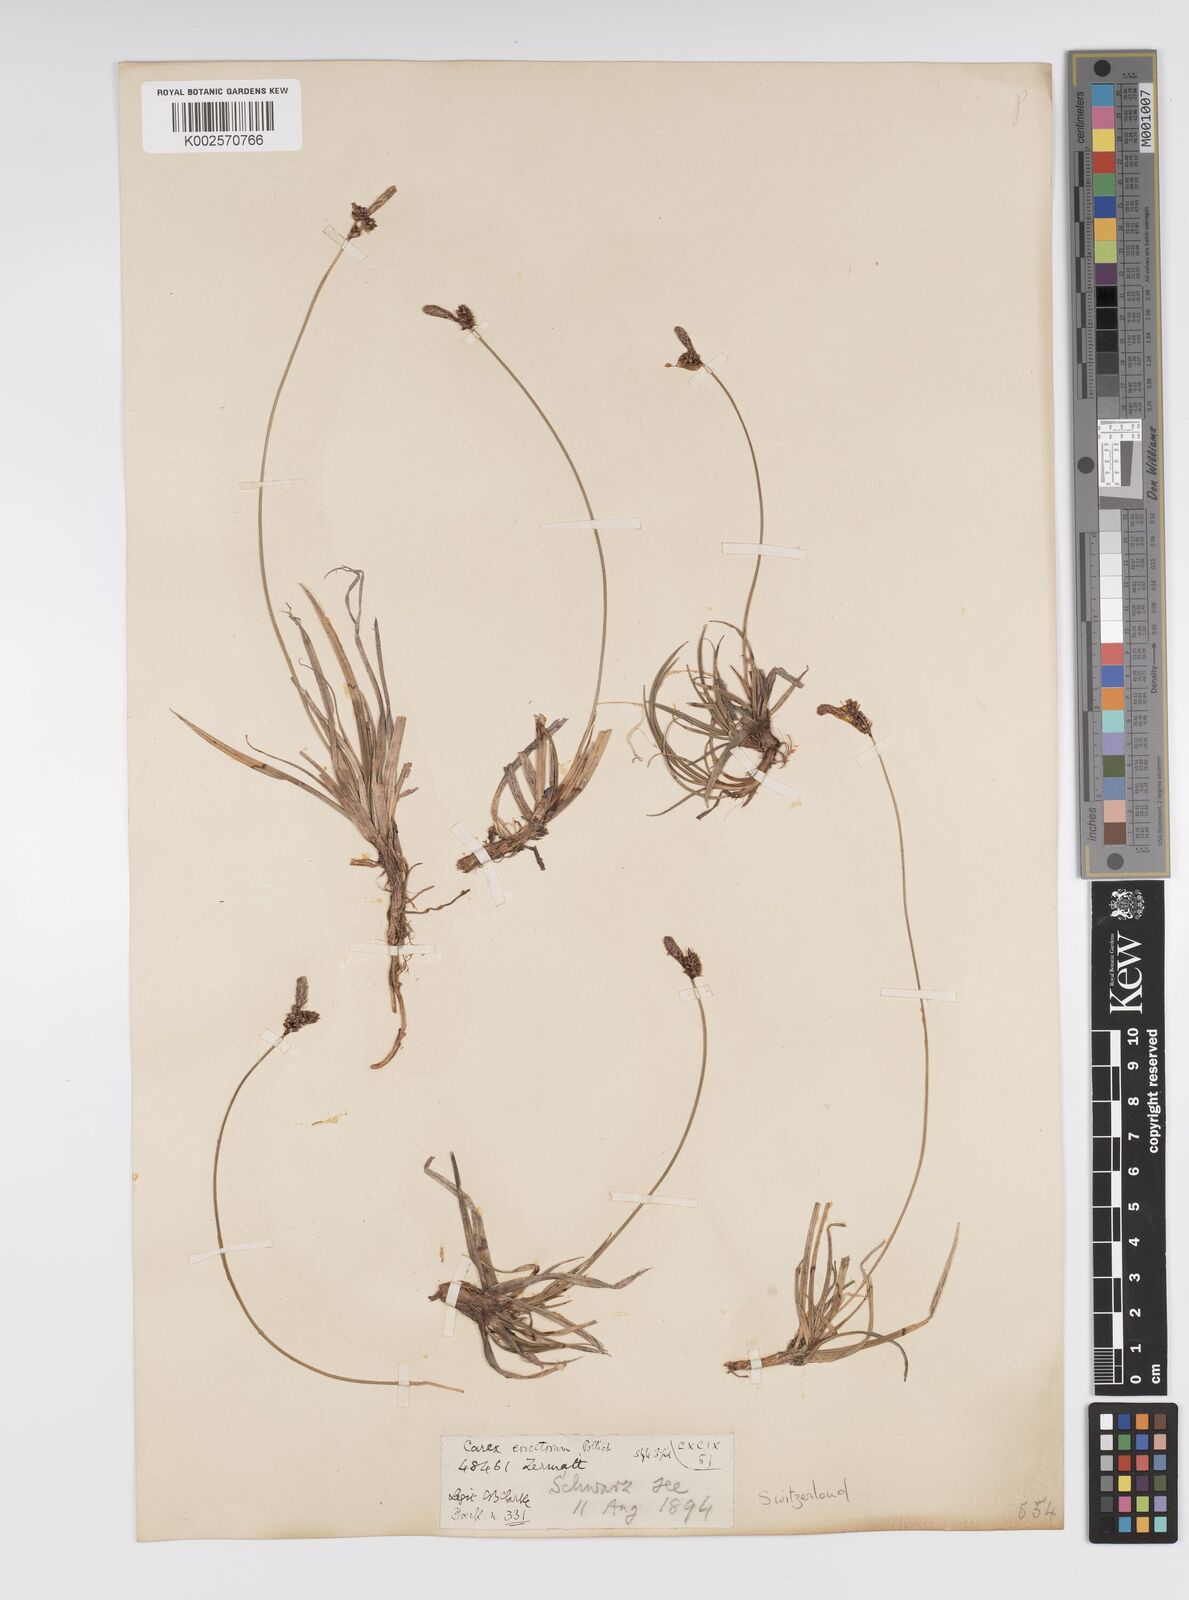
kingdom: Plantae
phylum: Tracheophyta
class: Liliopsida
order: Poales
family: Cyperaceae
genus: Carex
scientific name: Carex ericetorum
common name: Rare spring-sedge
